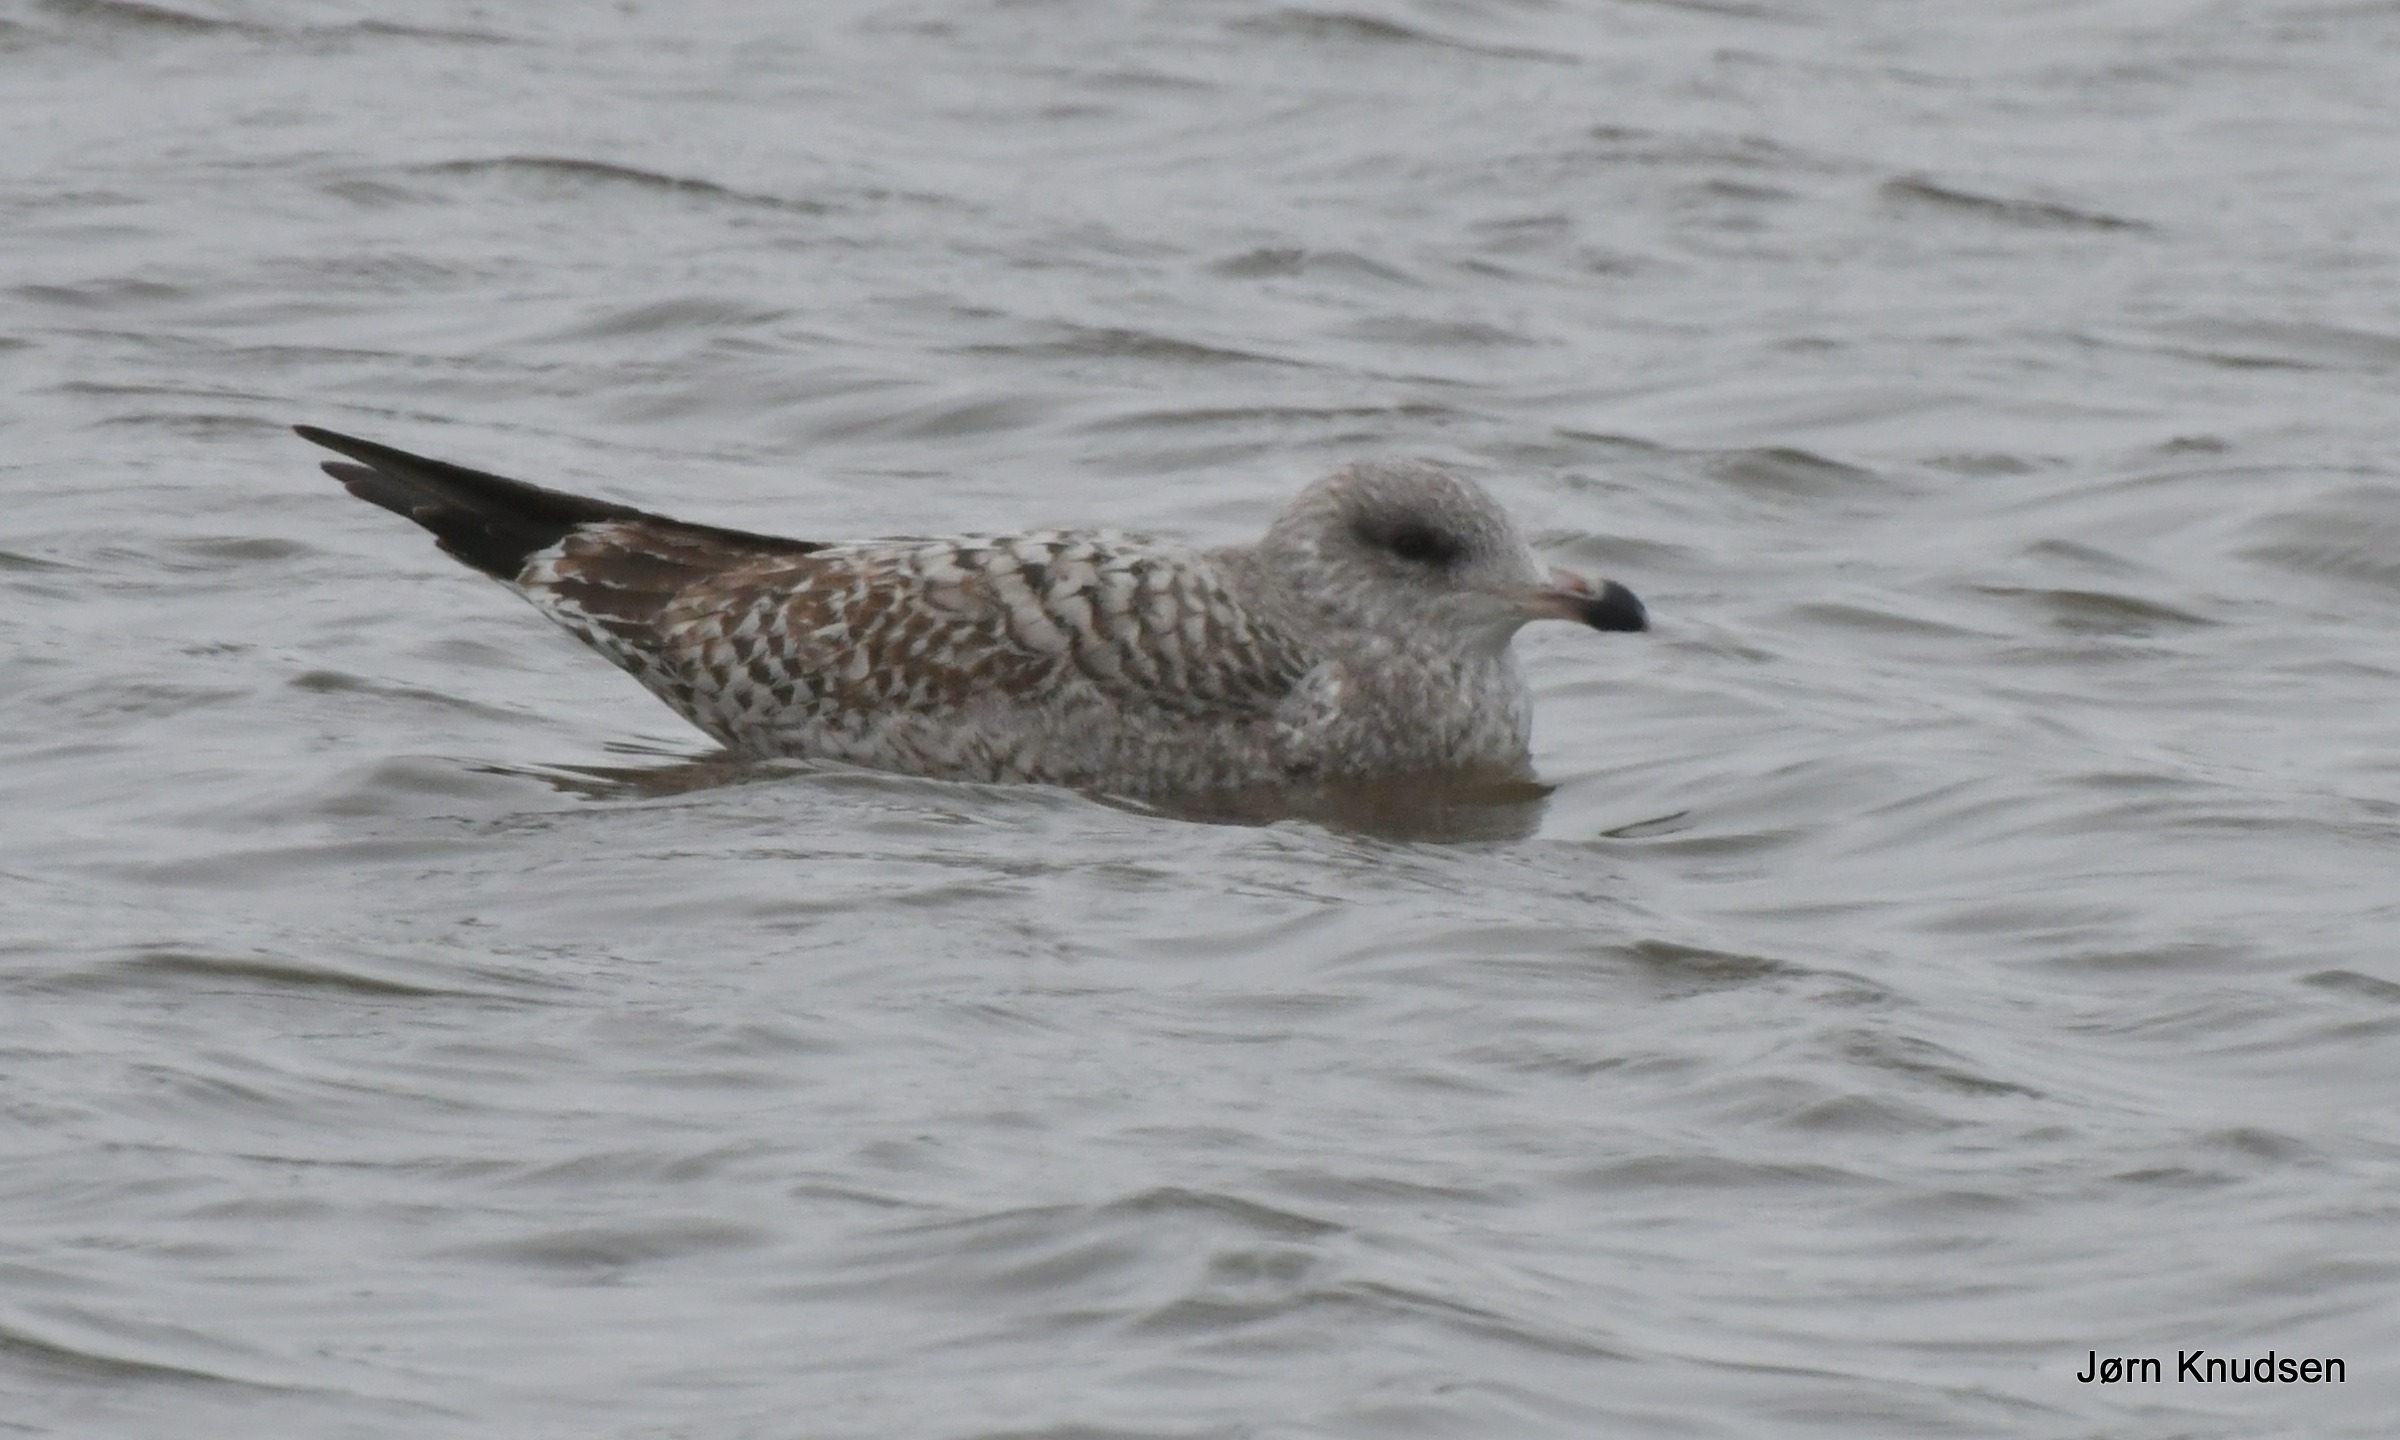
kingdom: Animalia
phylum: Chordata
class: Aves
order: Charadriiformes
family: Laridae
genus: Larus
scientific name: Larus argentatus
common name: Sølvmåge
